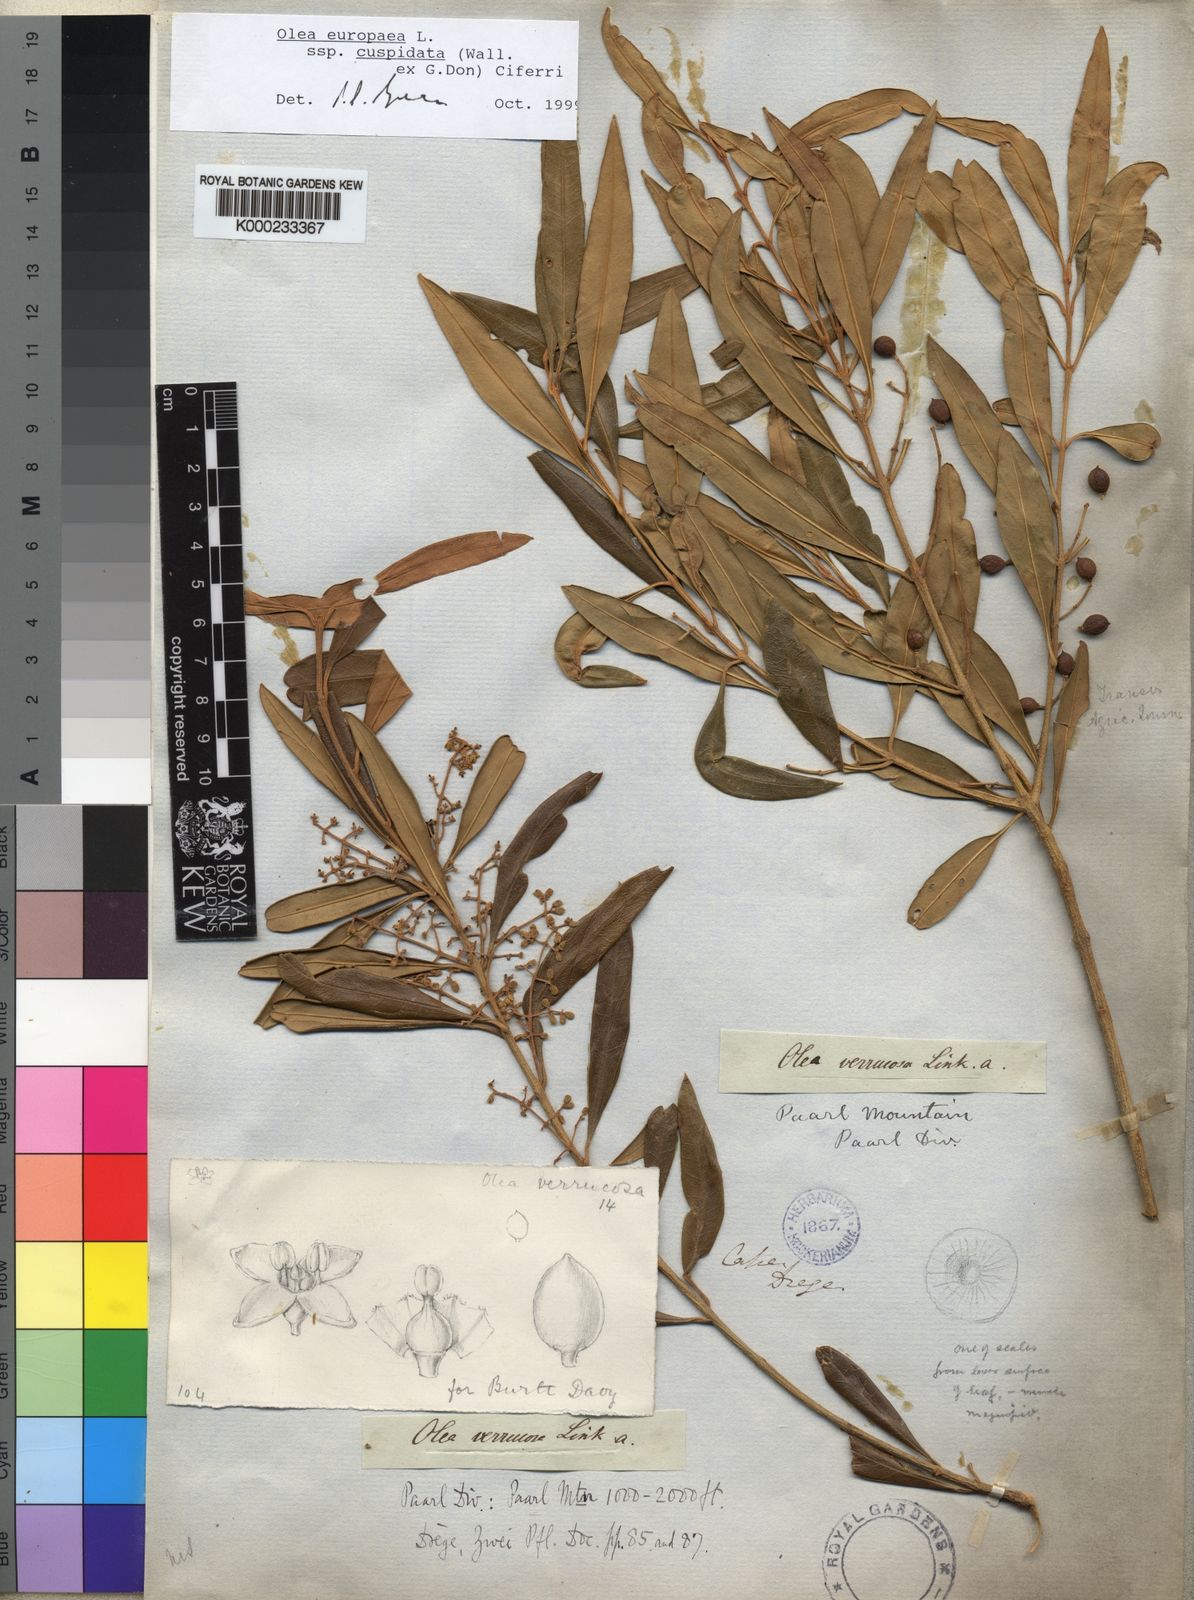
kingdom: Plantae
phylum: Tracheophyta
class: Magnoliopsida
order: Lamiales
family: Oleaceae
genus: Olea
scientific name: Olea europaea
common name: Olive
